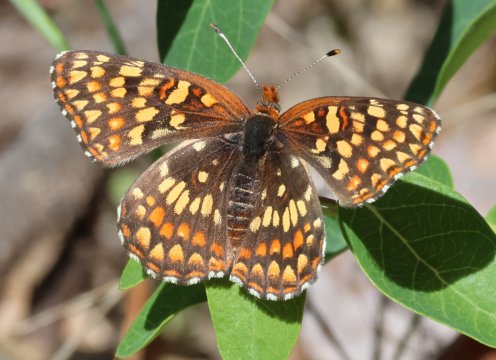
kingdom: Animalia
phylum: Arthropoda
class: Insecta
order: Lepidoptera
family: Nymphalidae
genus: Phyciodes
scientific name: Phyciodes tharos
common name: Field Crescent
